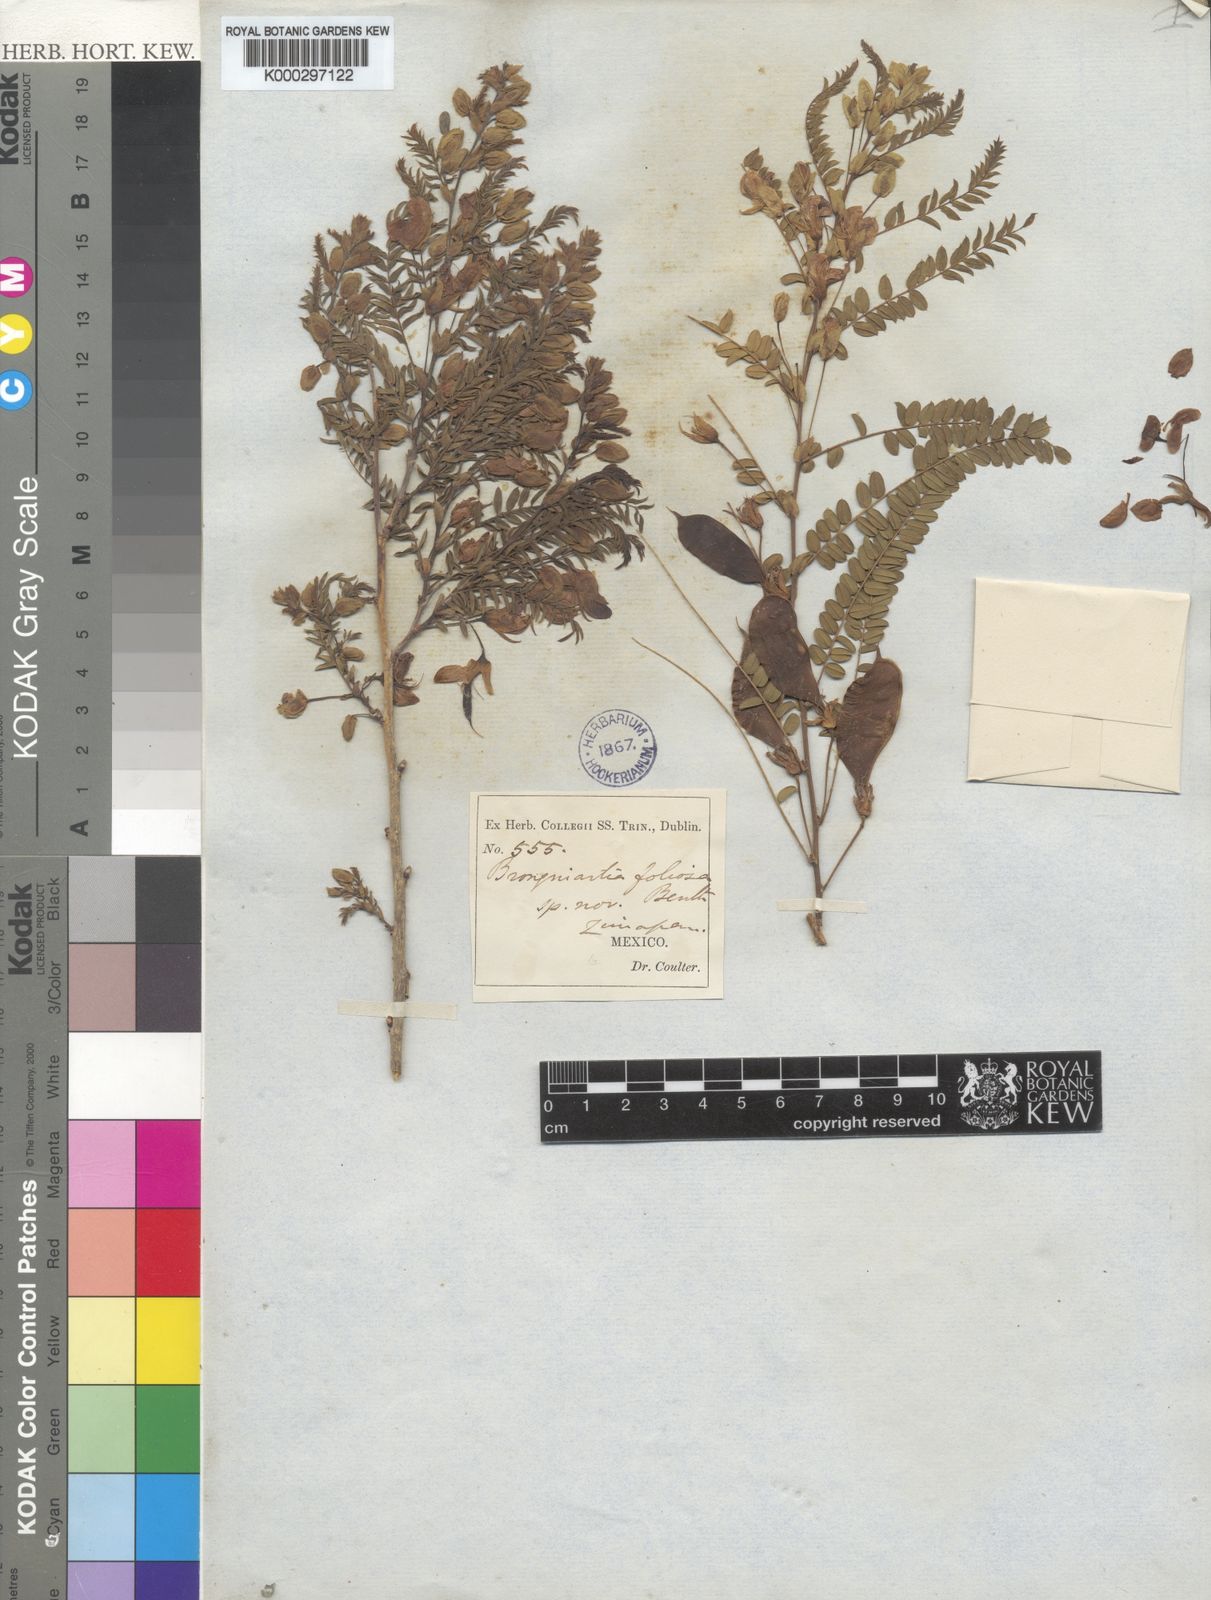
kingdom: Plantae
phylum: Tracheophyta
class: Magnoliopsida
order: Fabales
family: Fabaceae
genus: Brongniartia
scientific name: Brongniartia foliolosa
